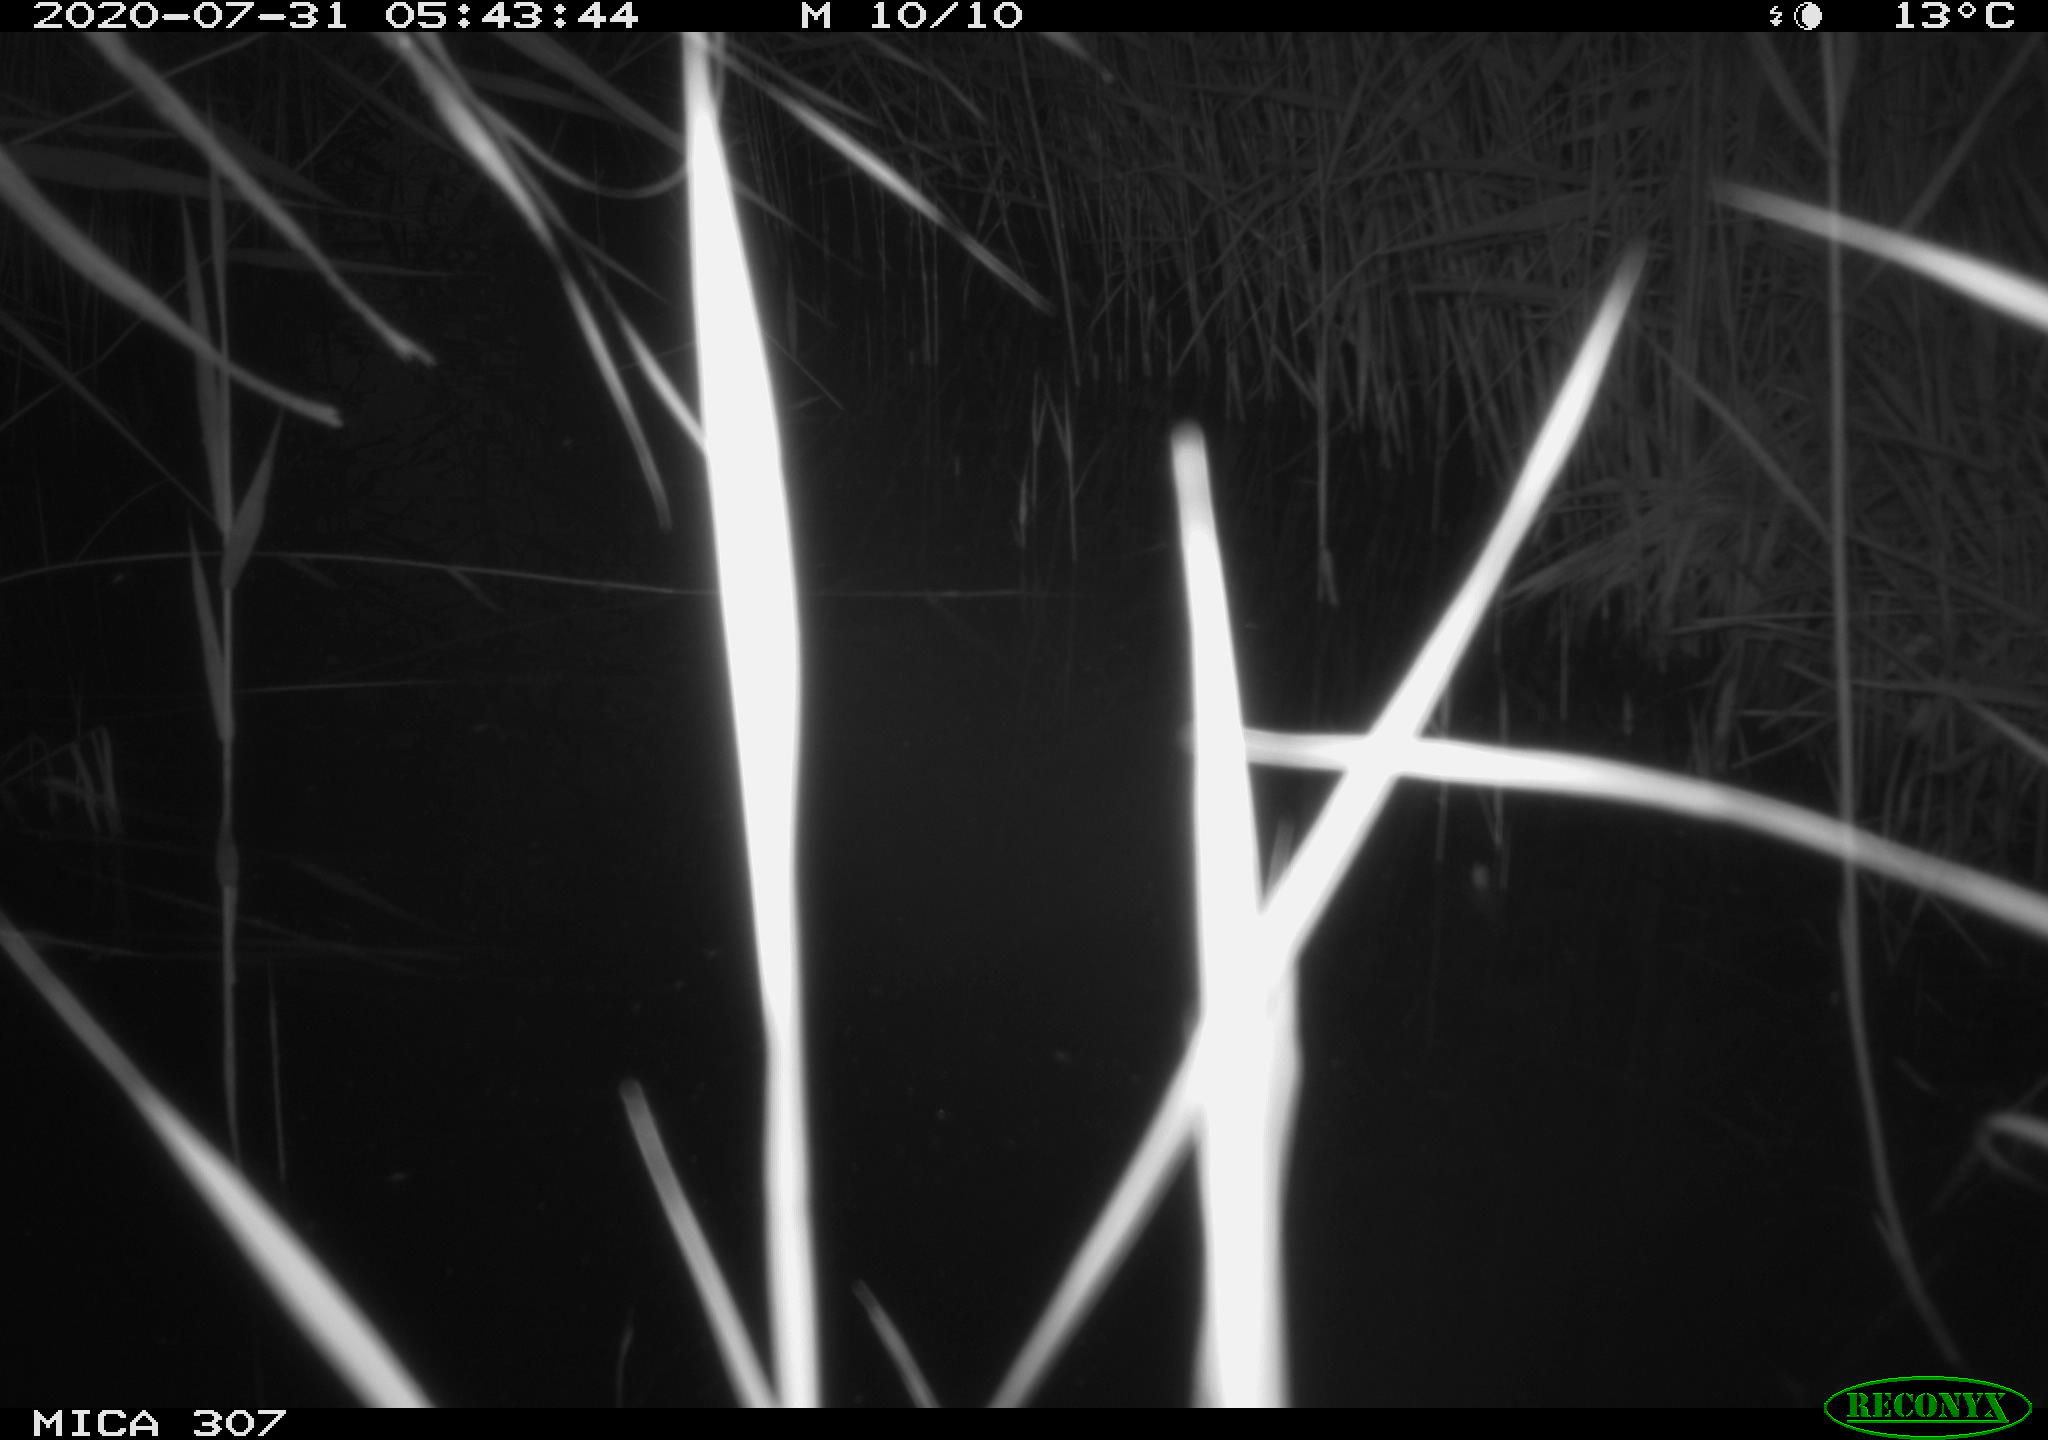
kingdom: Animalia
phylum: Chordata
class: Mammalia
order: Rodentia
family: Muridae
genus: Rattus
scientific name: Rattus norvegicus
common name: Brown rat
